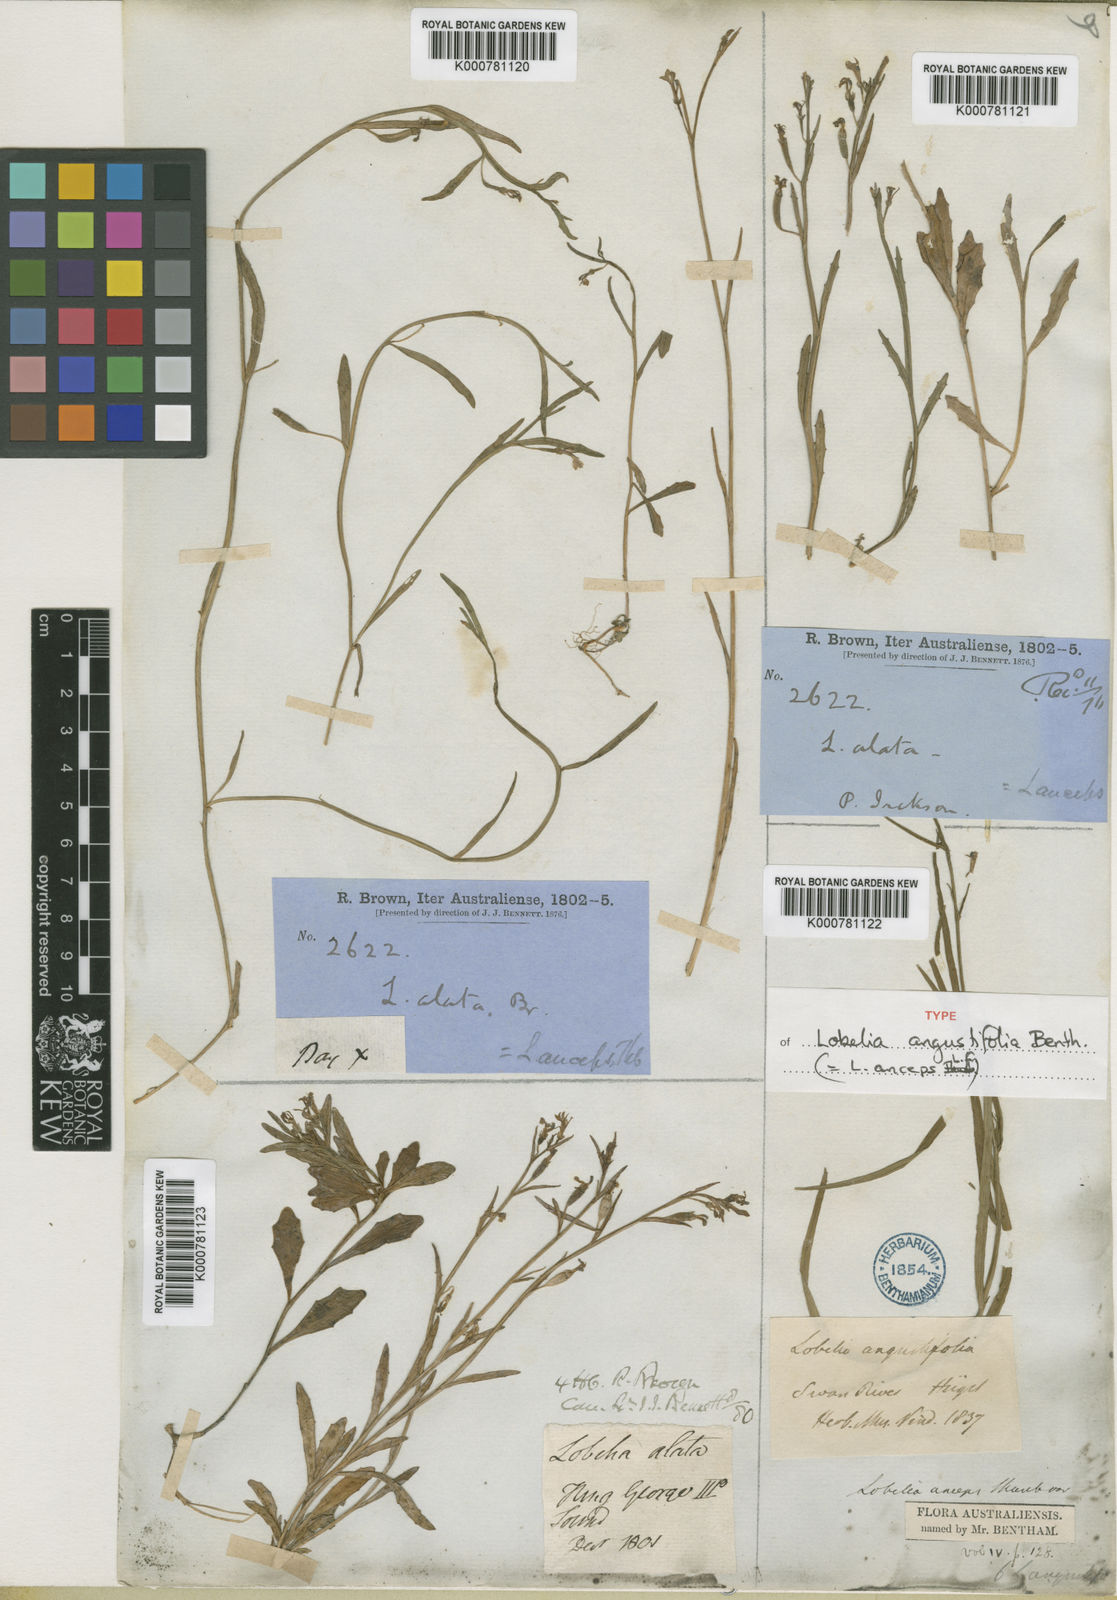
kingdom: Plantae
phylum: Tracheophyta
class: Magnoliopsida
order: Asterales
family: Campanulaceae
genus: Lobelia
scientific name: Lobelia
